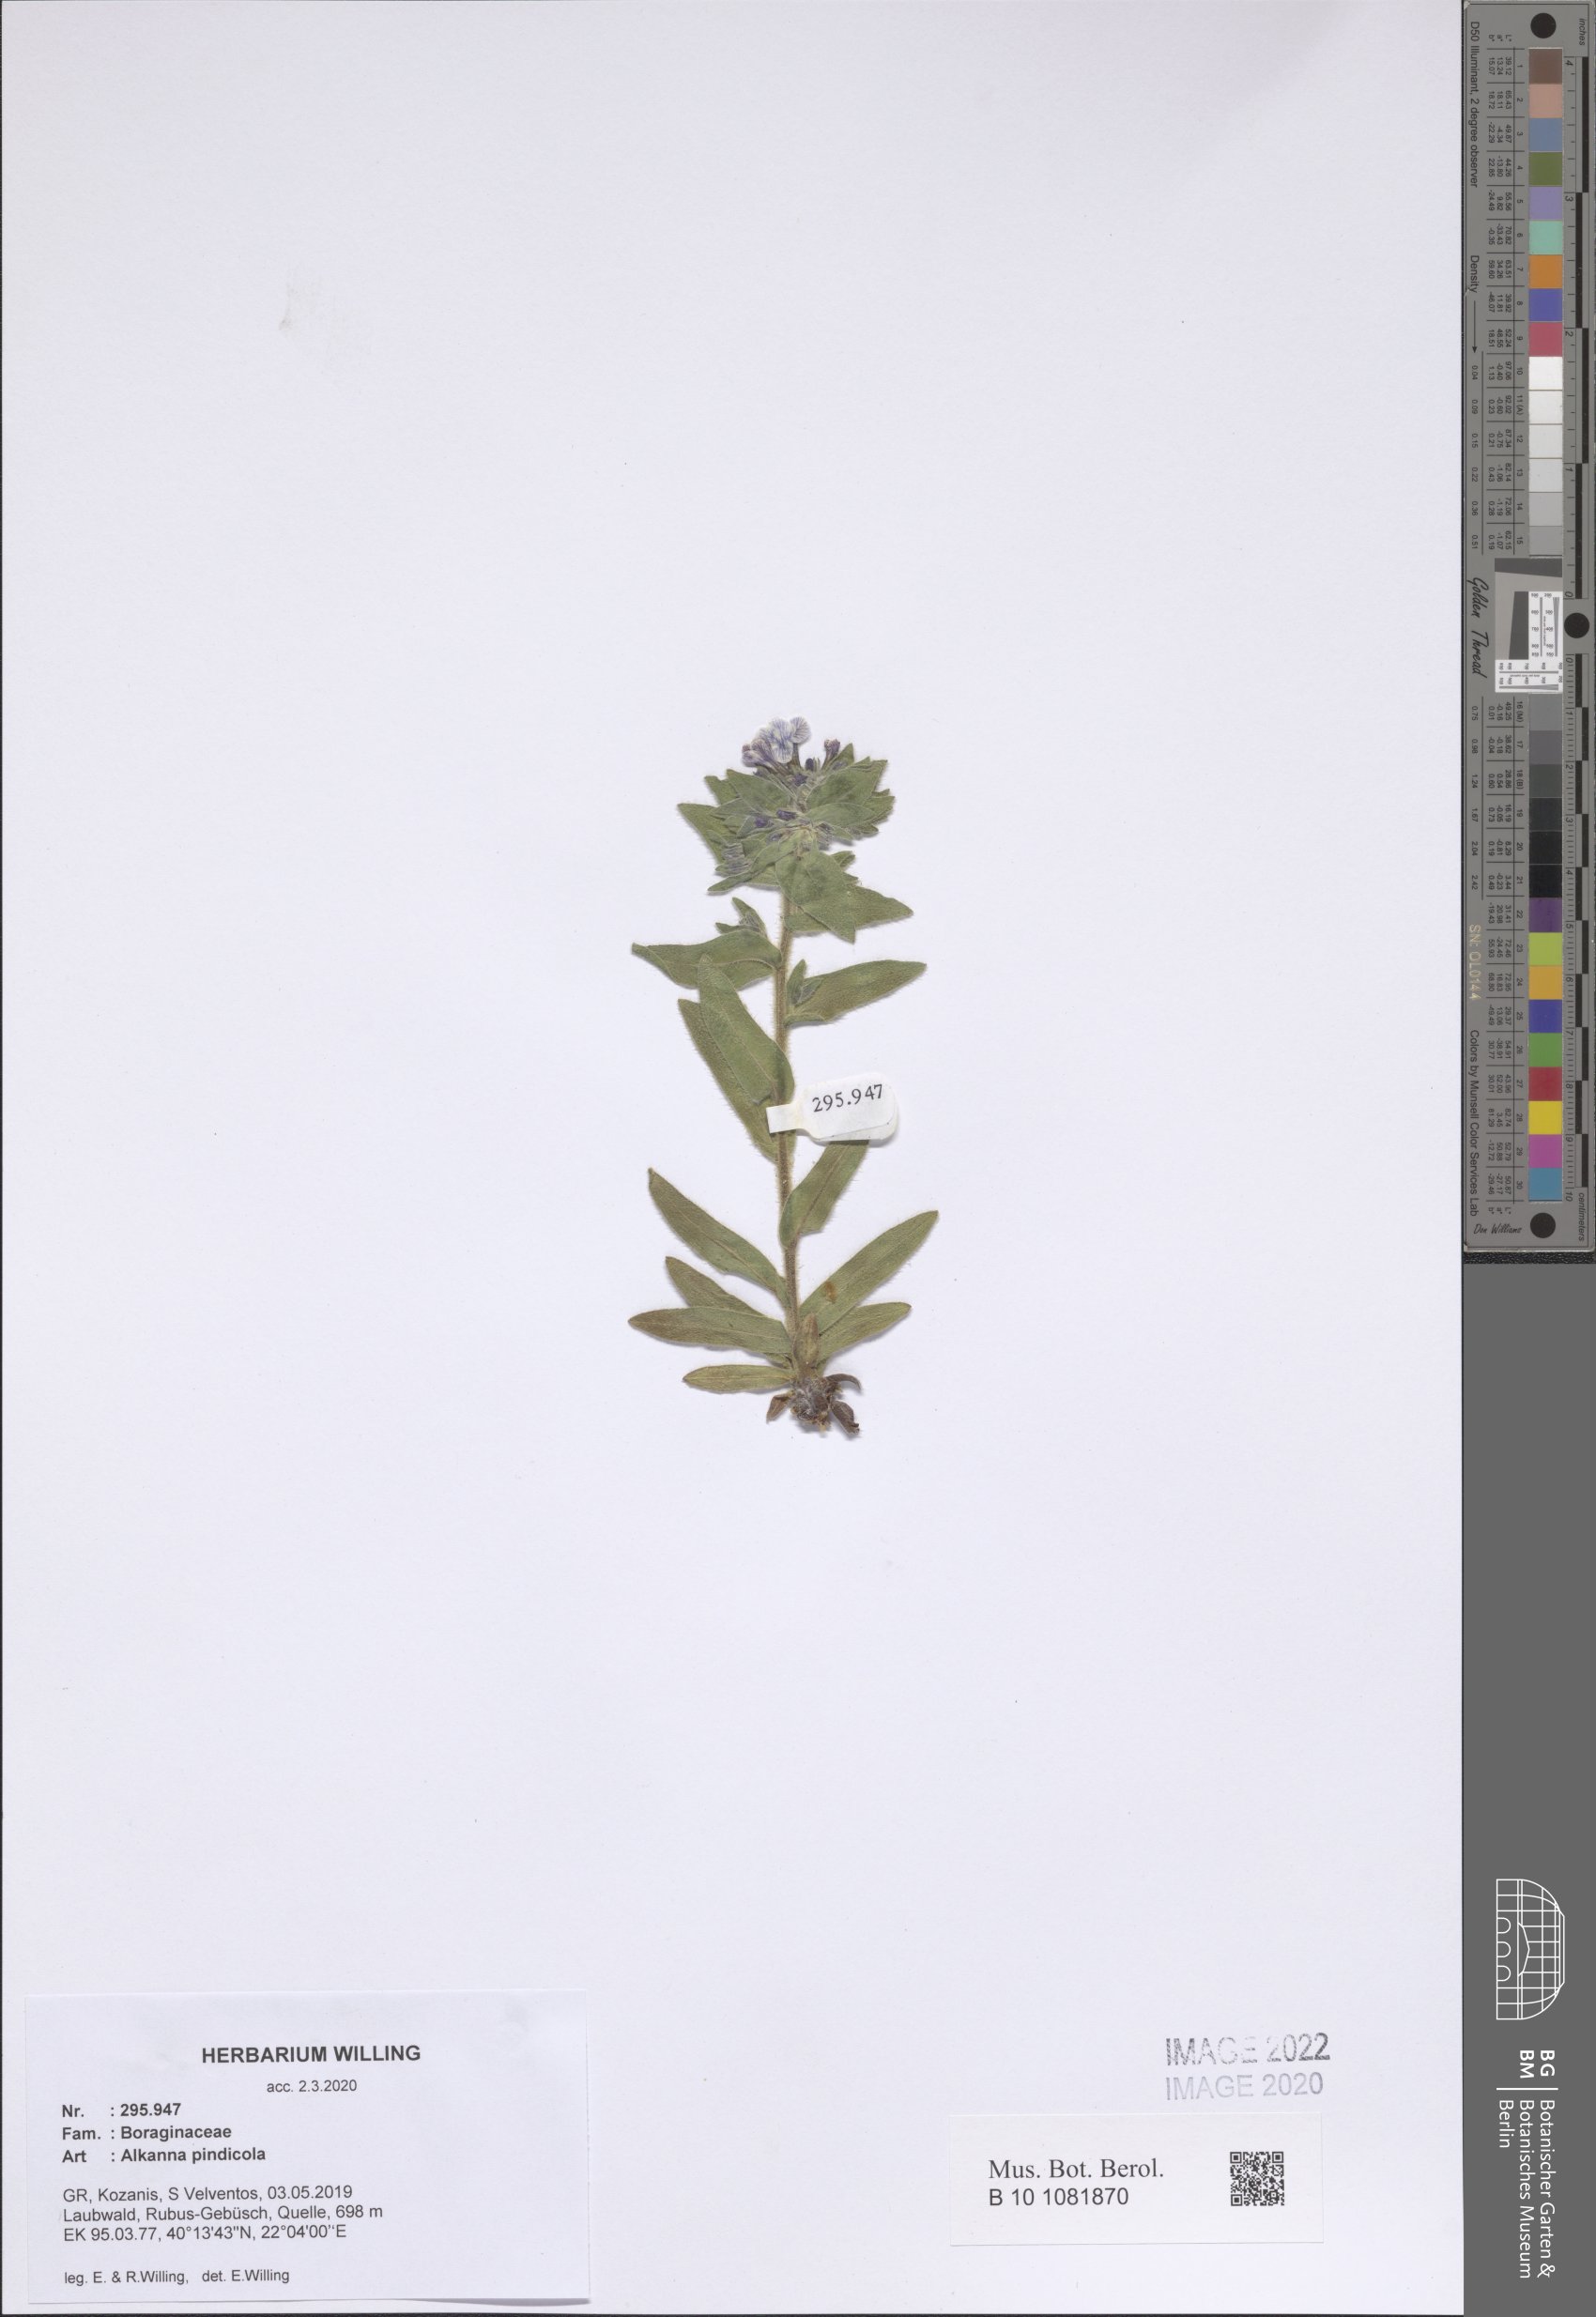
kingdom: Plantae
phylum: Tracheophyta
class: Magnoliopsida
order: Boraginales
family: Boraginaceae
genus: Alkanna
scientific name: Alkanna pindicola
